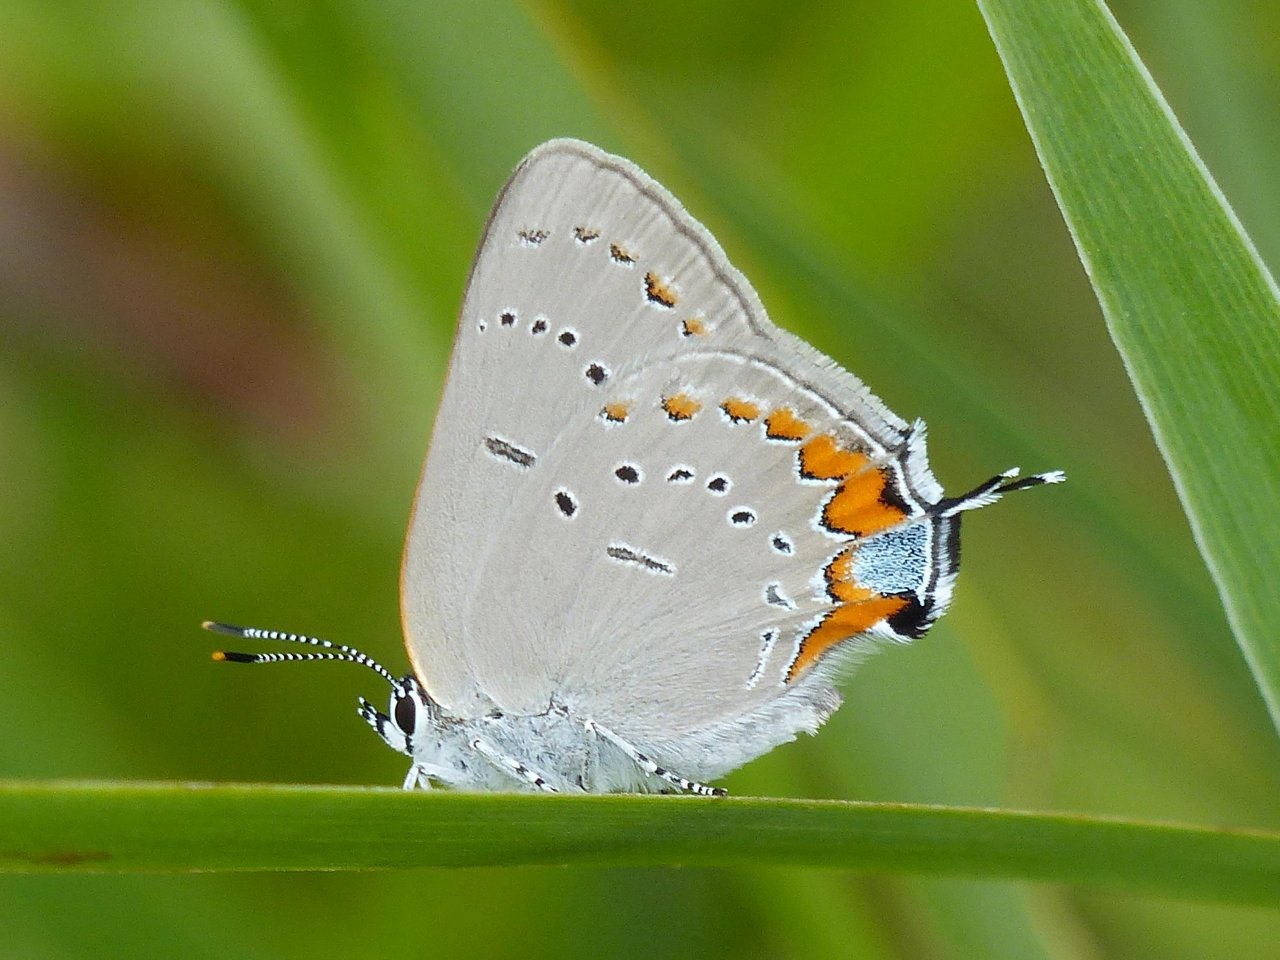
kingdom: Animalia
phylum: Arthropoda
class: Insecta
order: Lepidoptera
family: Lycaenidae
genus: Strymon
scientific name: Strymon acadica
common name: Acadian Hairstreak
